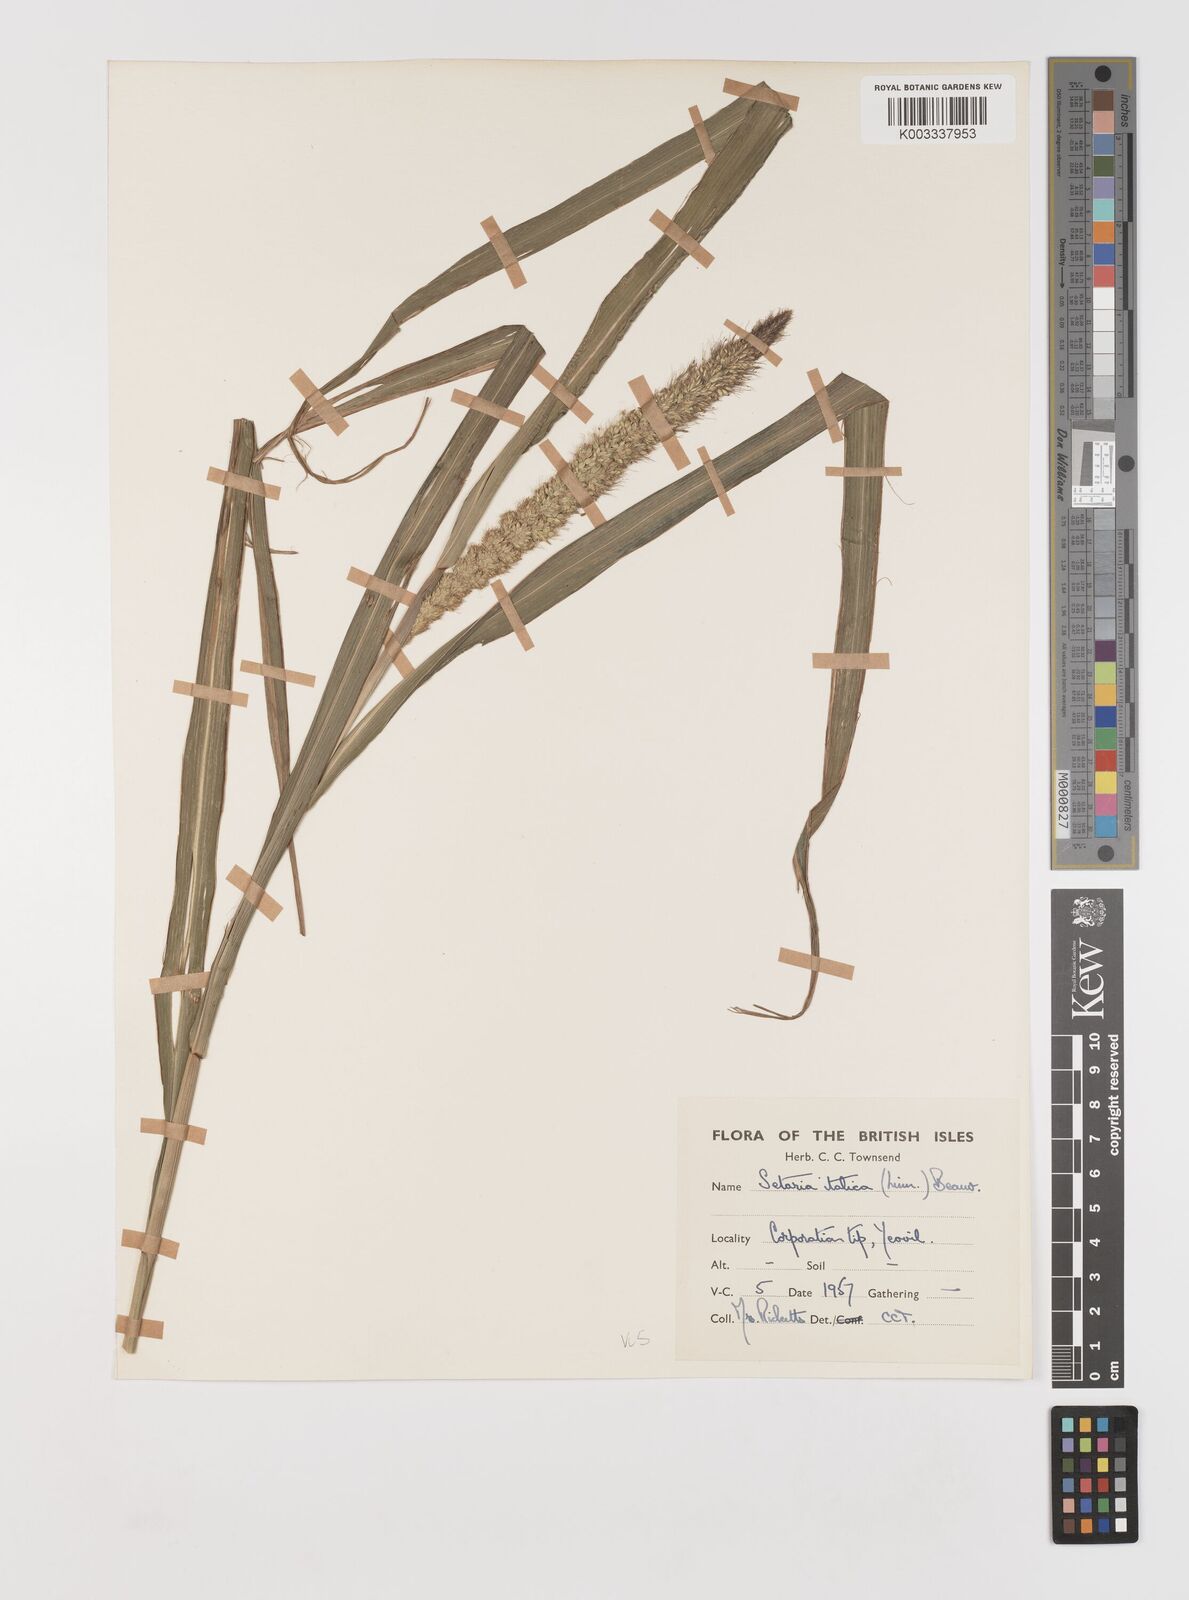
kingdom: Plantae
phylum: Tracheophyta
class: Liliopsida
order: Poales
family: Poaceae
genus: Setaria
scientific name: Setaria italica
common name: Foxtail bristle-grass
